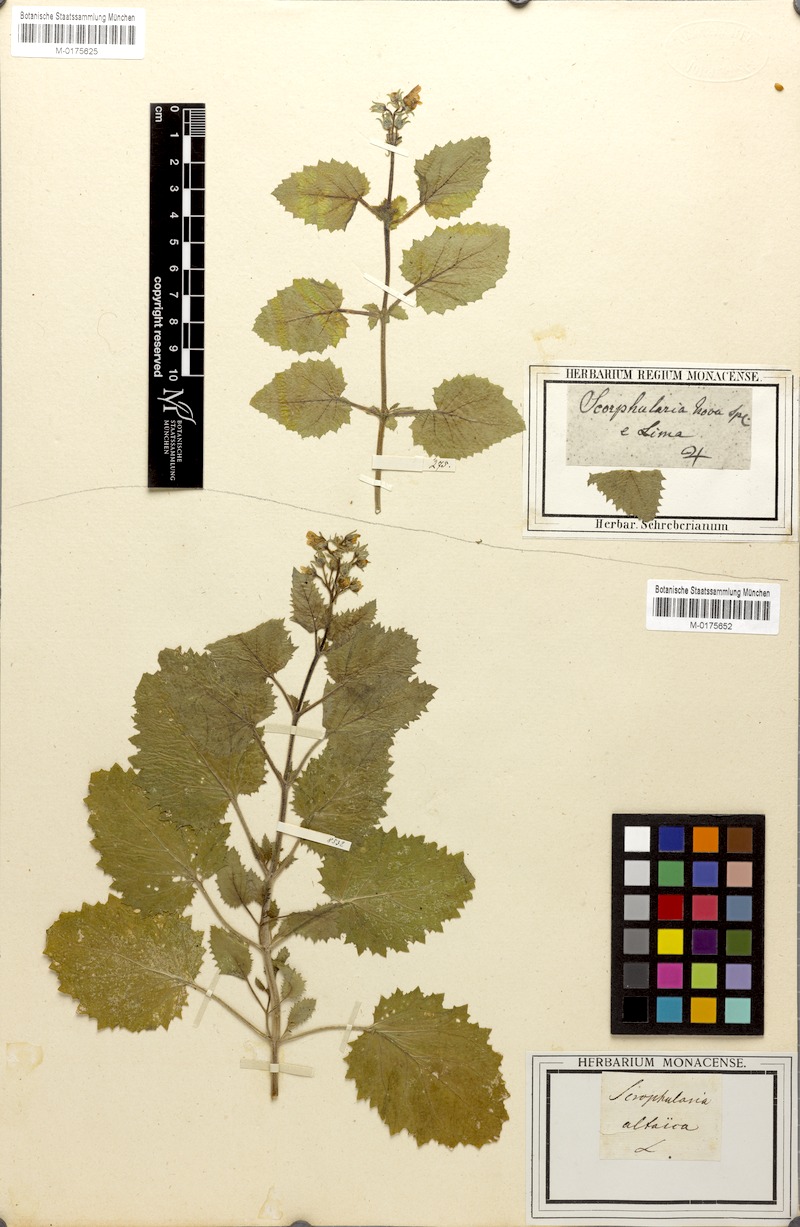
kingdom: Plantae
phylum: Tracheophyta
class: Magnoliopsida
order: Lamiales
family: Scrophulariaceae
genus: Scrophularia
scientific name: Scrophularia altaica
